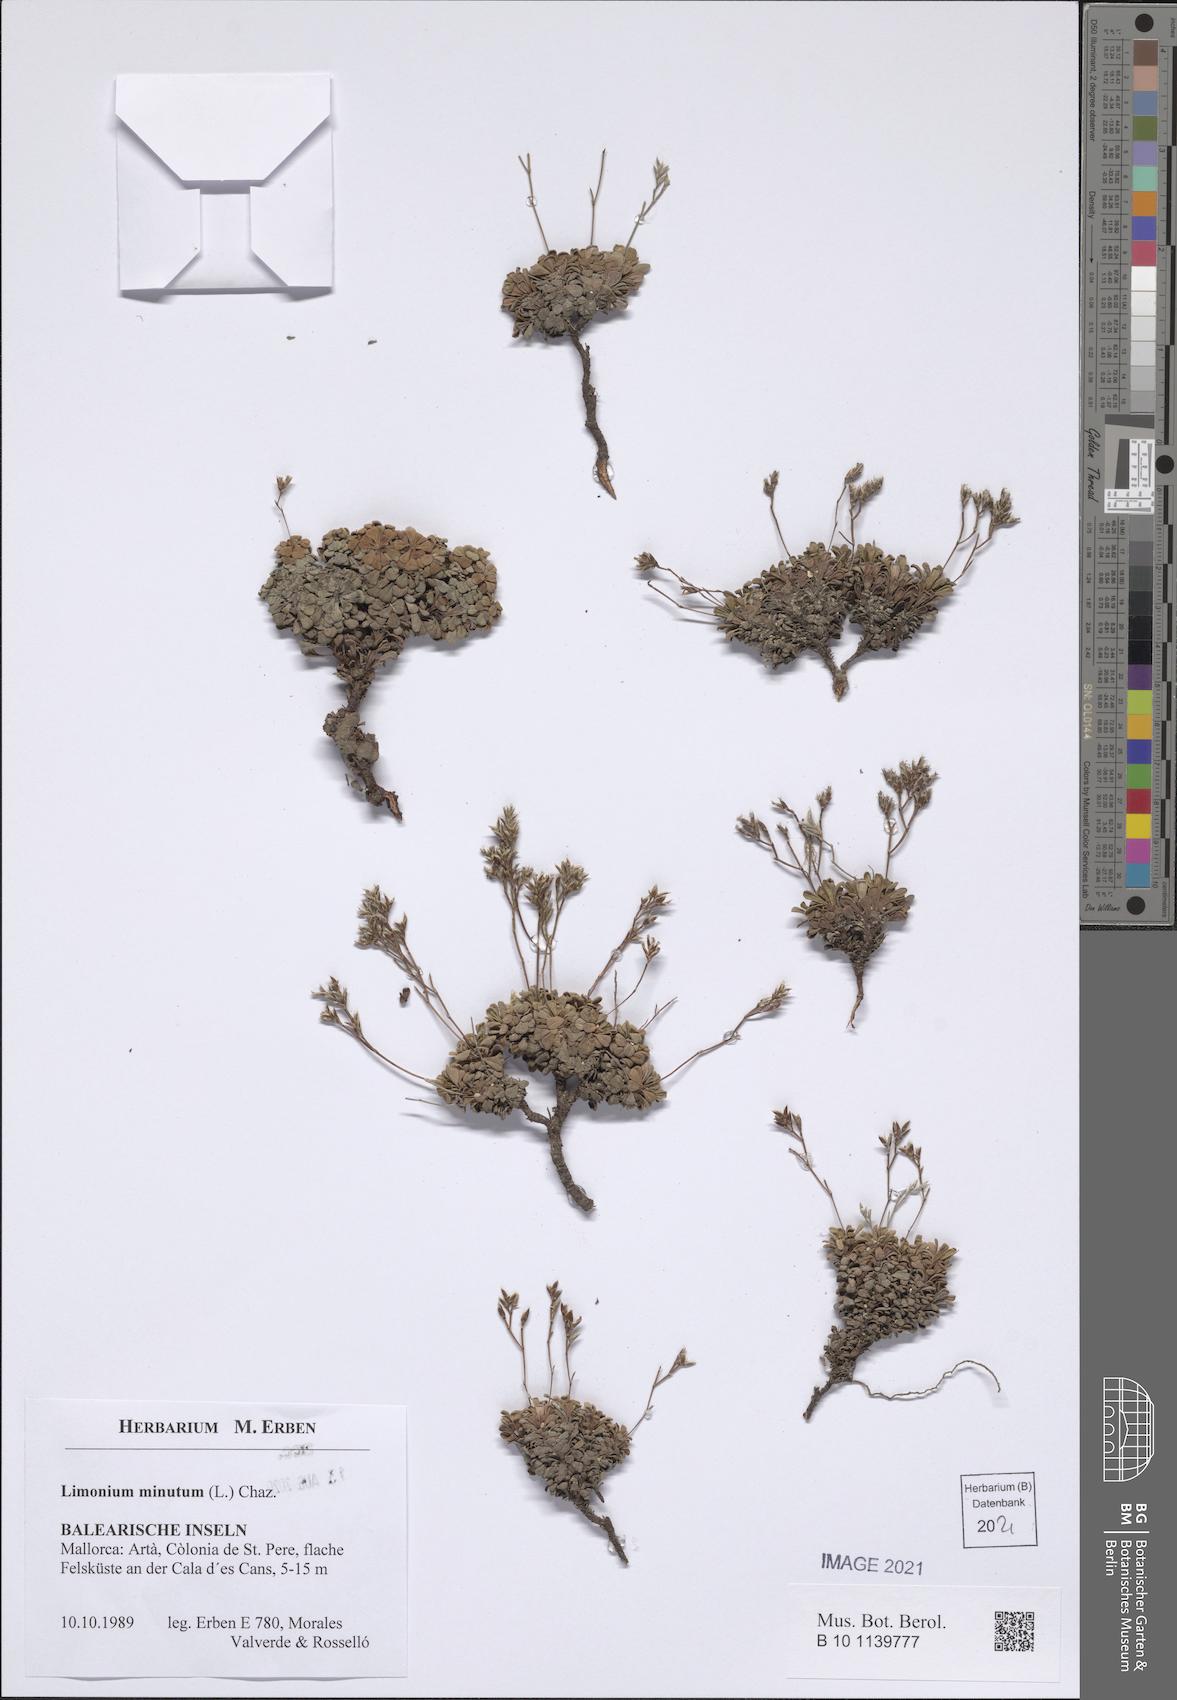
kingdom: Plantae
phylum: Tracheophyta
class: Magnoliopsida
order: Caryophyllales
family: Plumbaginaceae
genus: Limonium
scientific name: Limonium minutum
